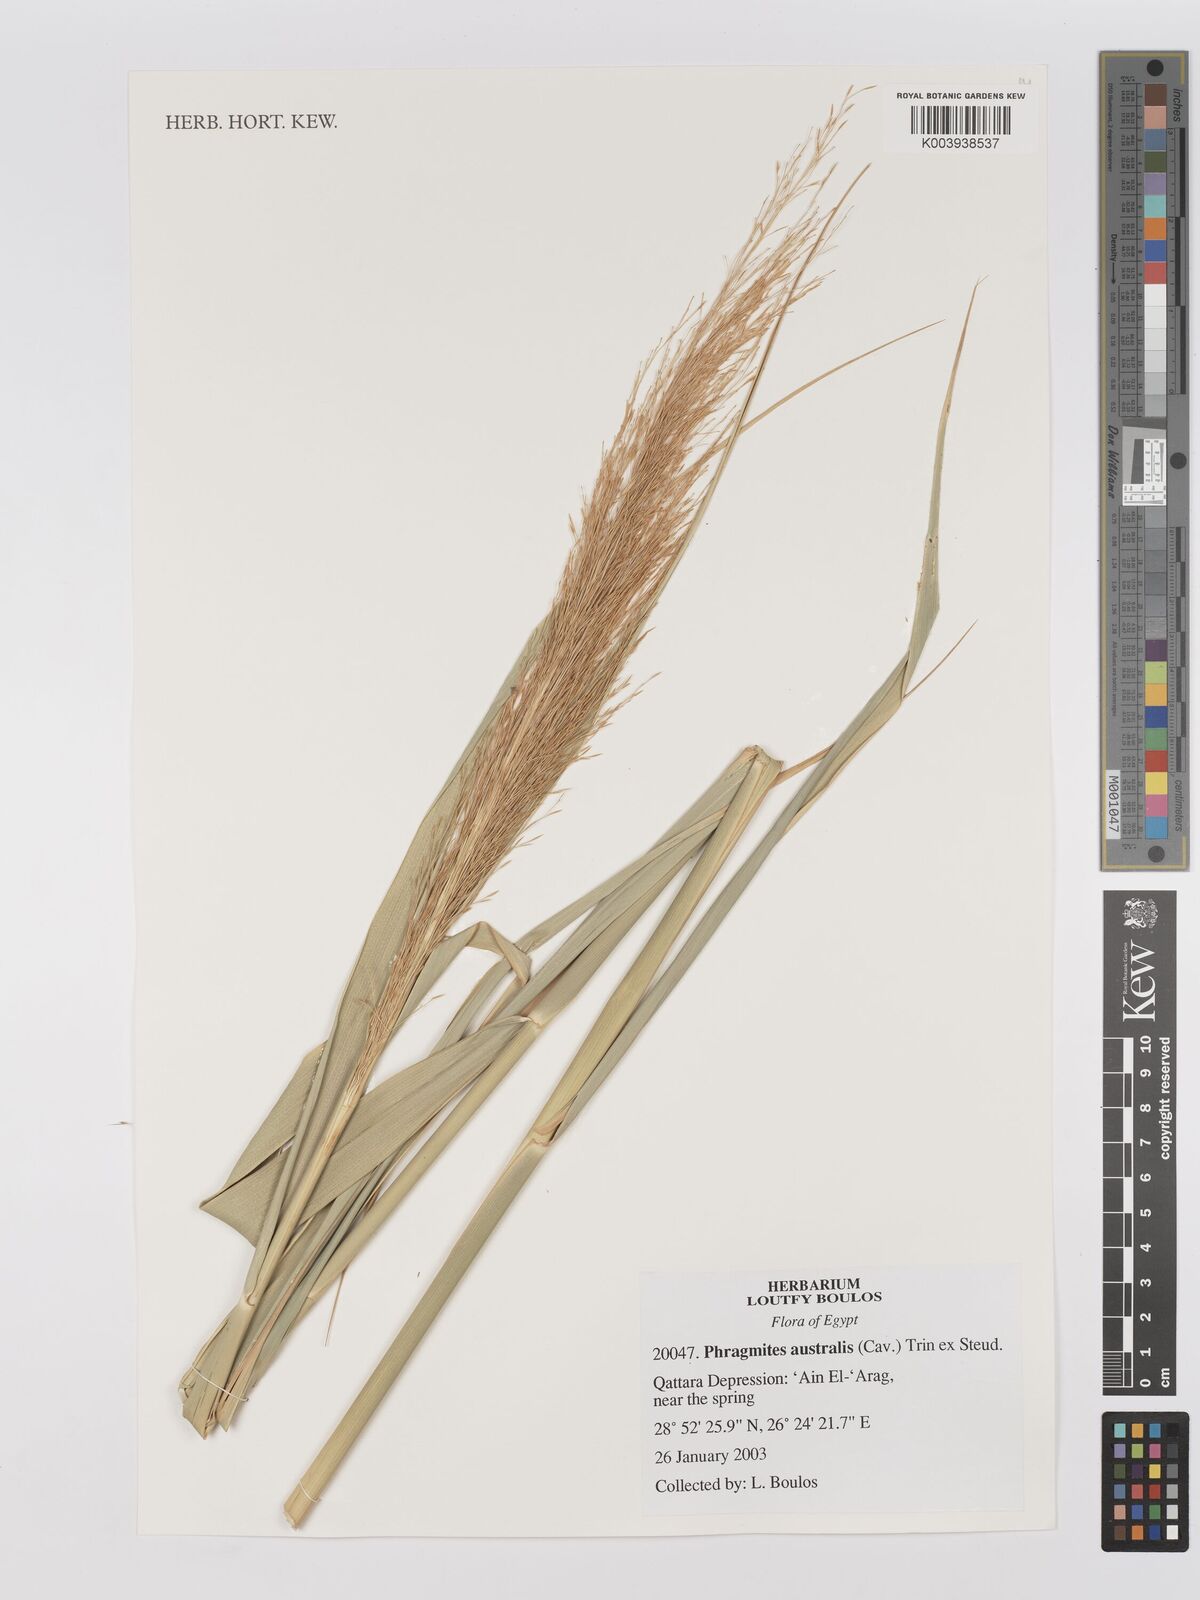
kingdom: Plantae
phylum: Tracheophyta
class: Liliopsida
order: Poales
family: Poaceae
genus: Phragmites
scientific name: Phragmites australis
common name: Common reed
